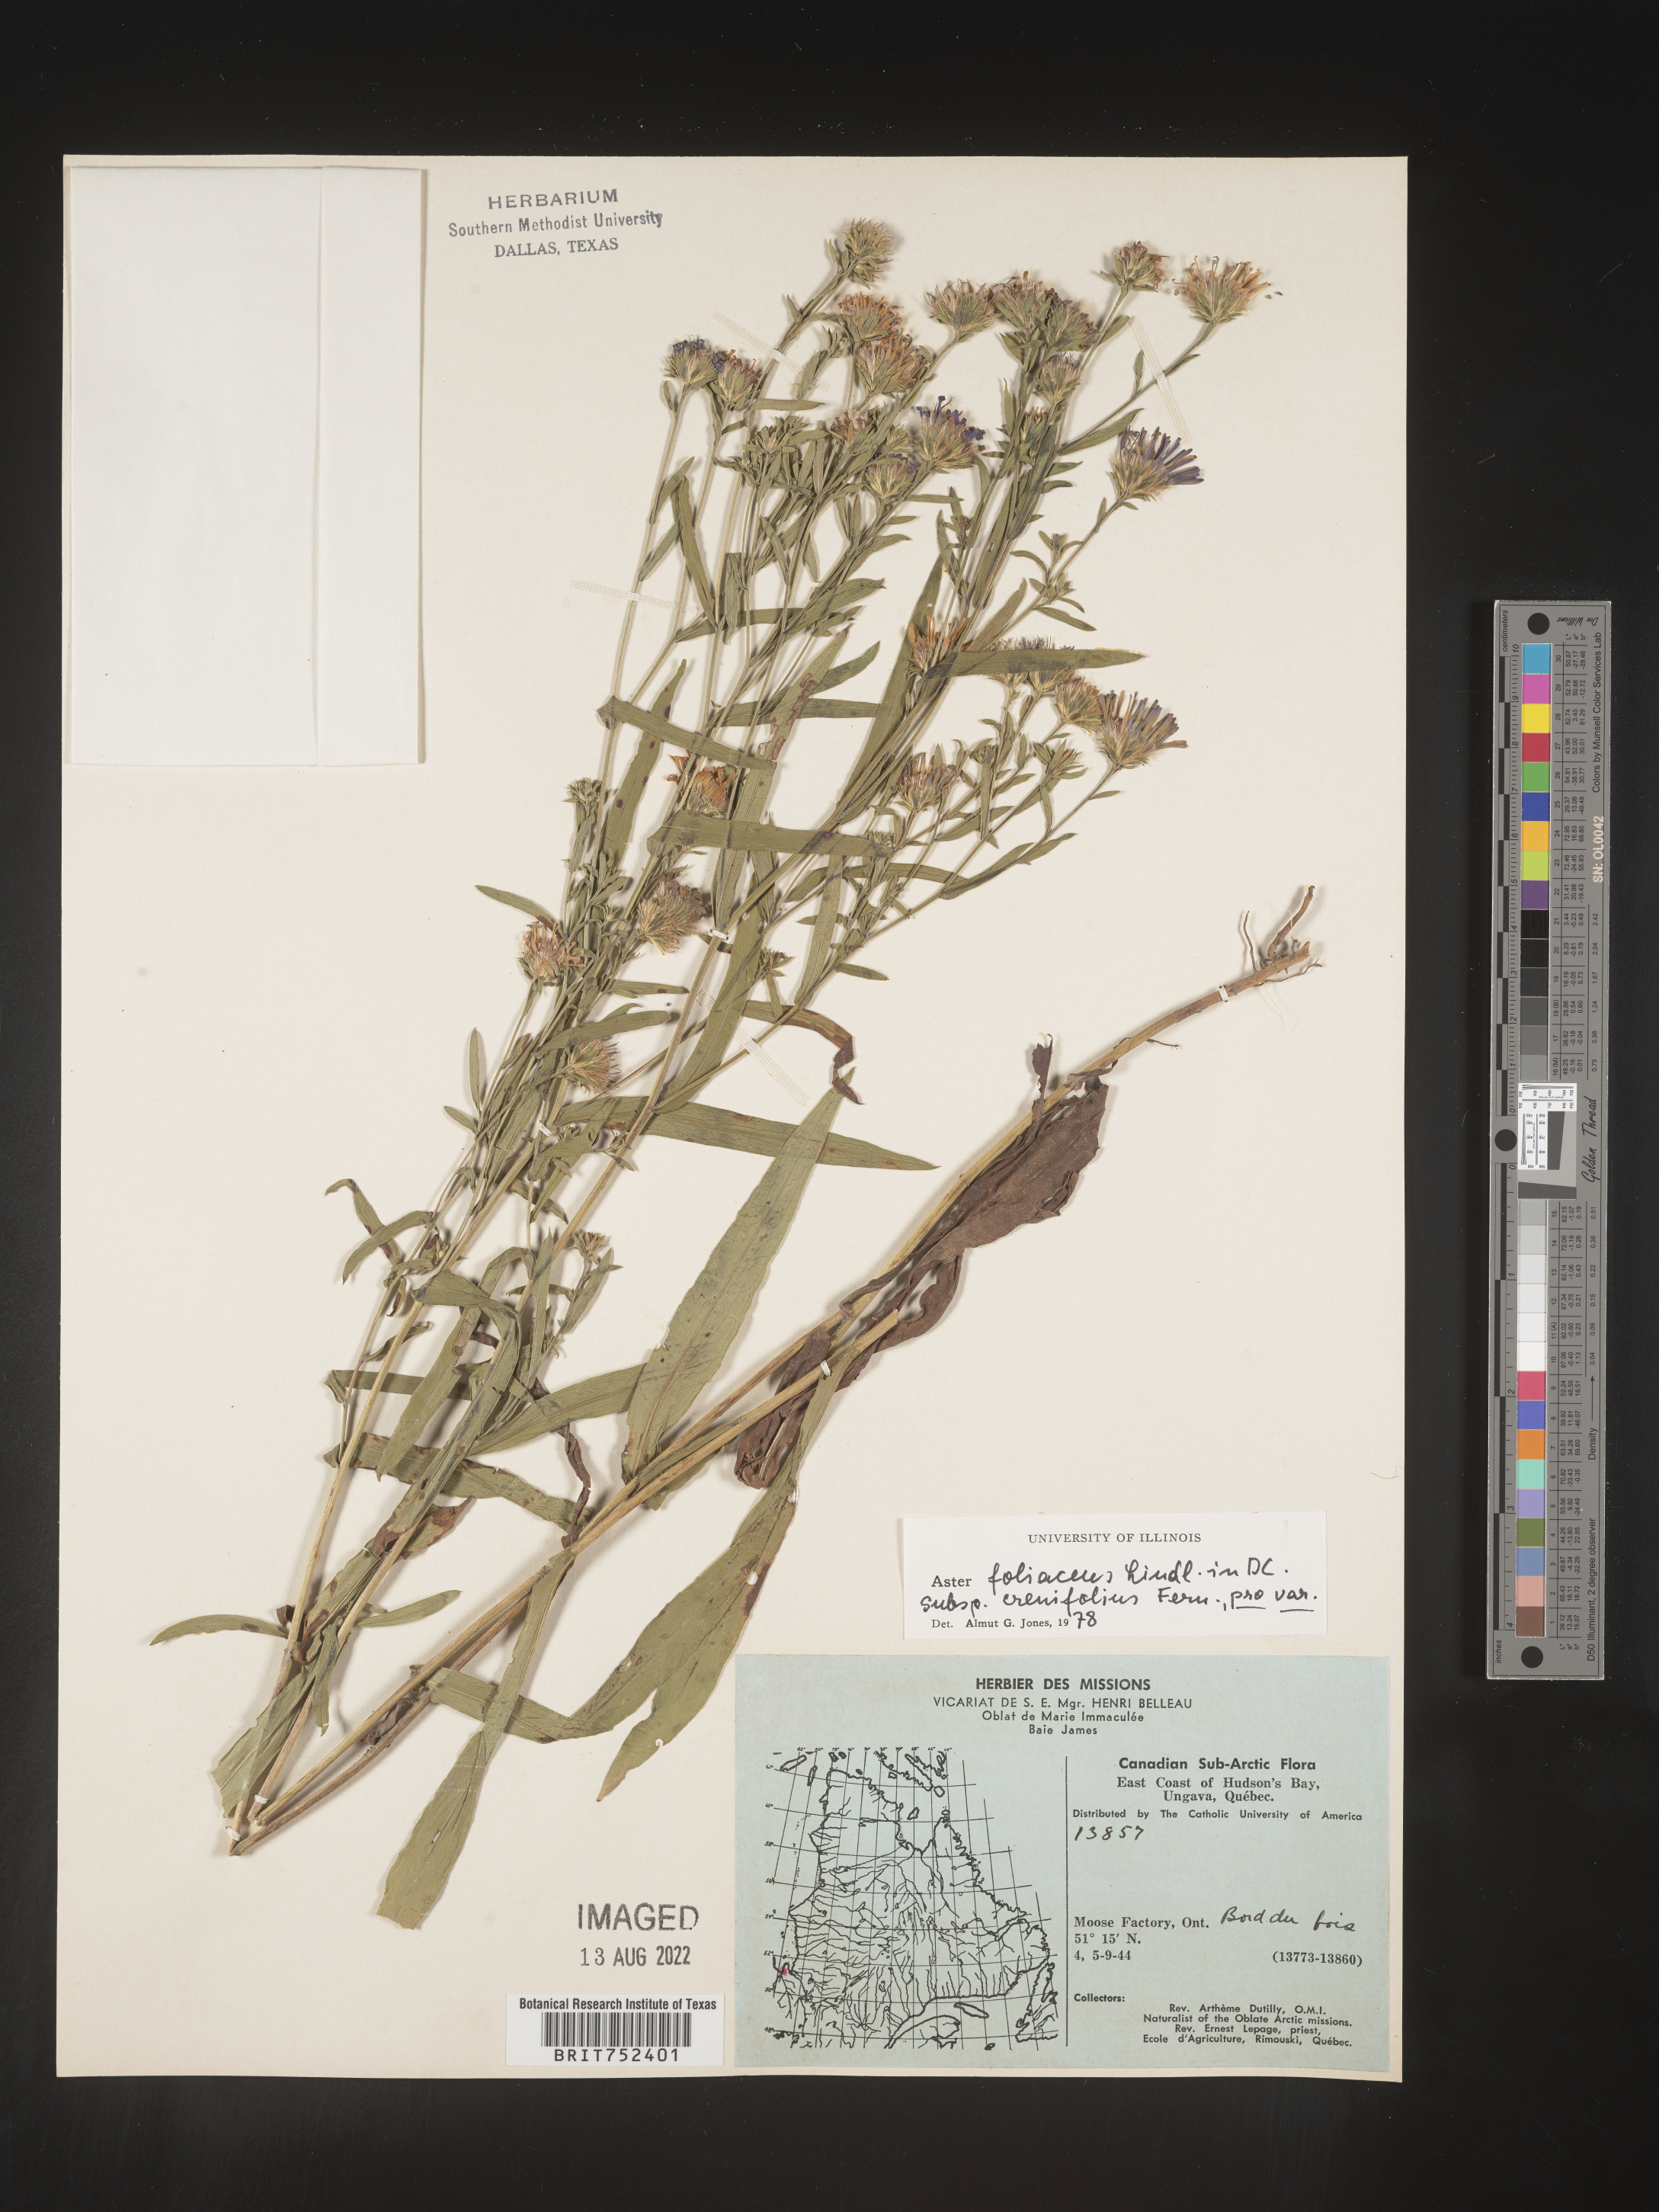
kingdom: Plantae
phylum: Tracheophyta
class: Magnoliopsida
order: Asterales
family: Asteraceae
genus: Symphyotrichum
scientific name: Symphyotrichum foliaceum
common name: Leafy aster
